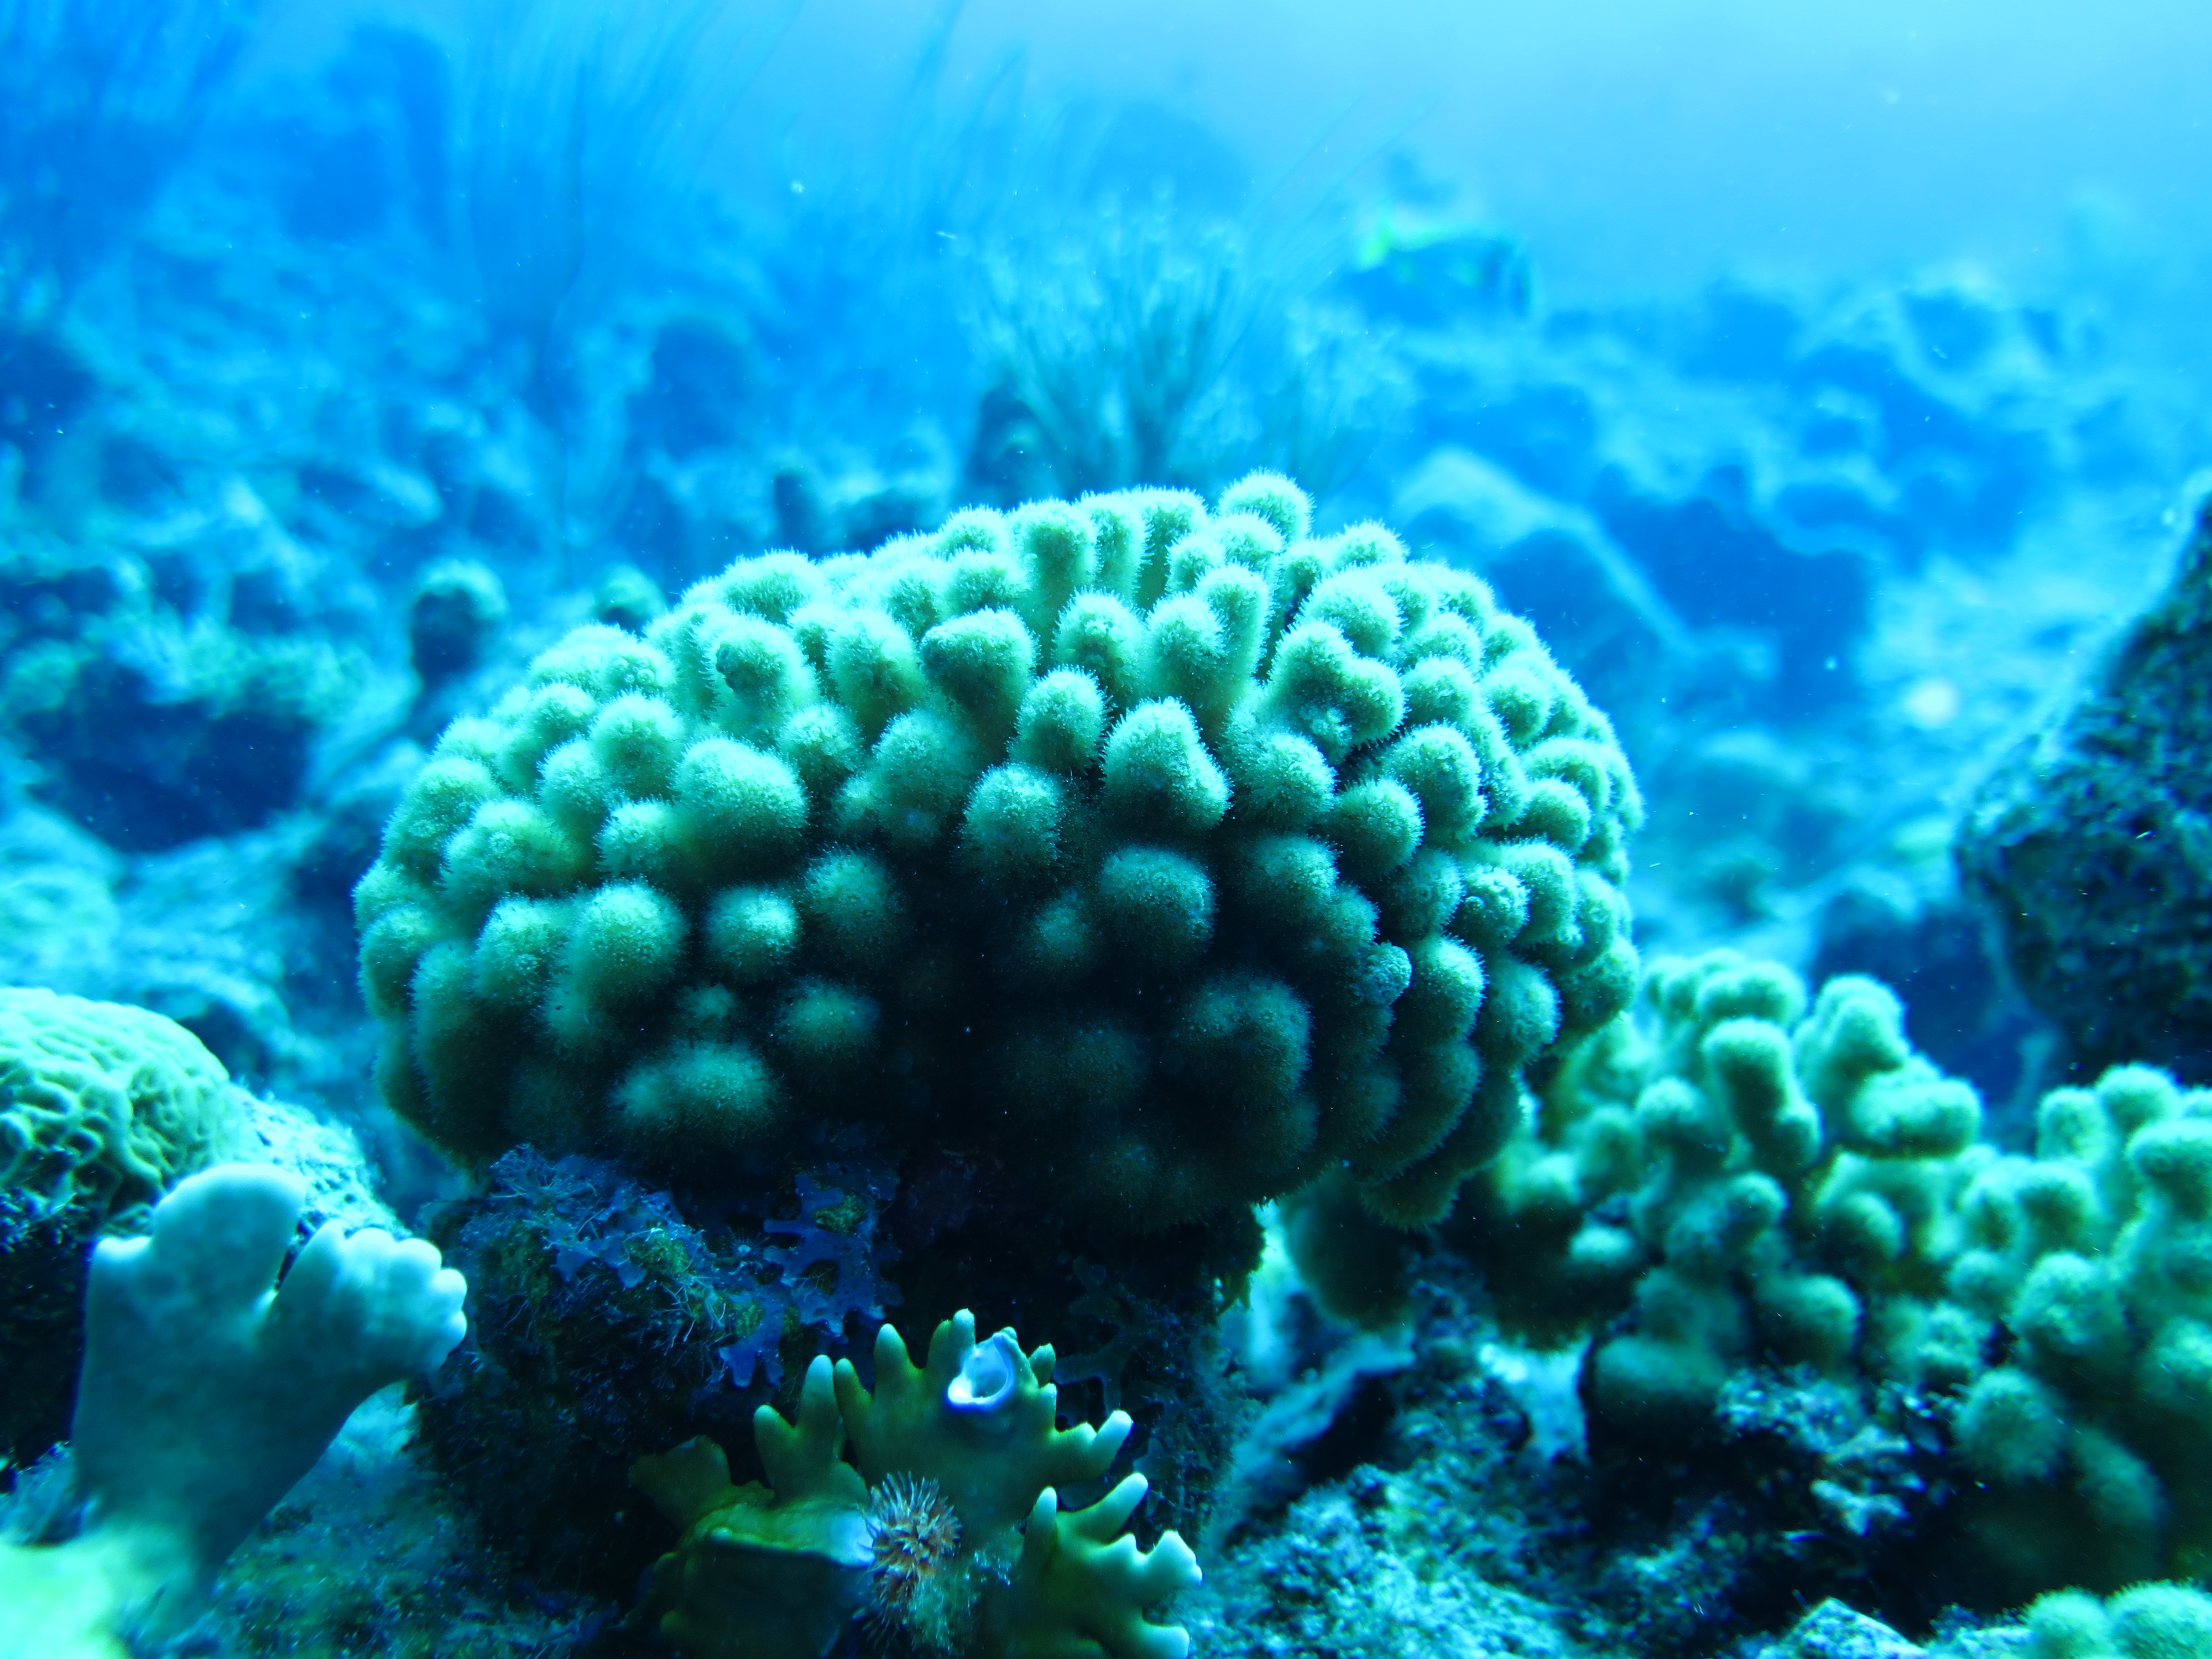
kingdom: Animalia
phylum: Cnidaria
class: Anthozoa
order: Scleractinia
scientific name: Scleractinia
